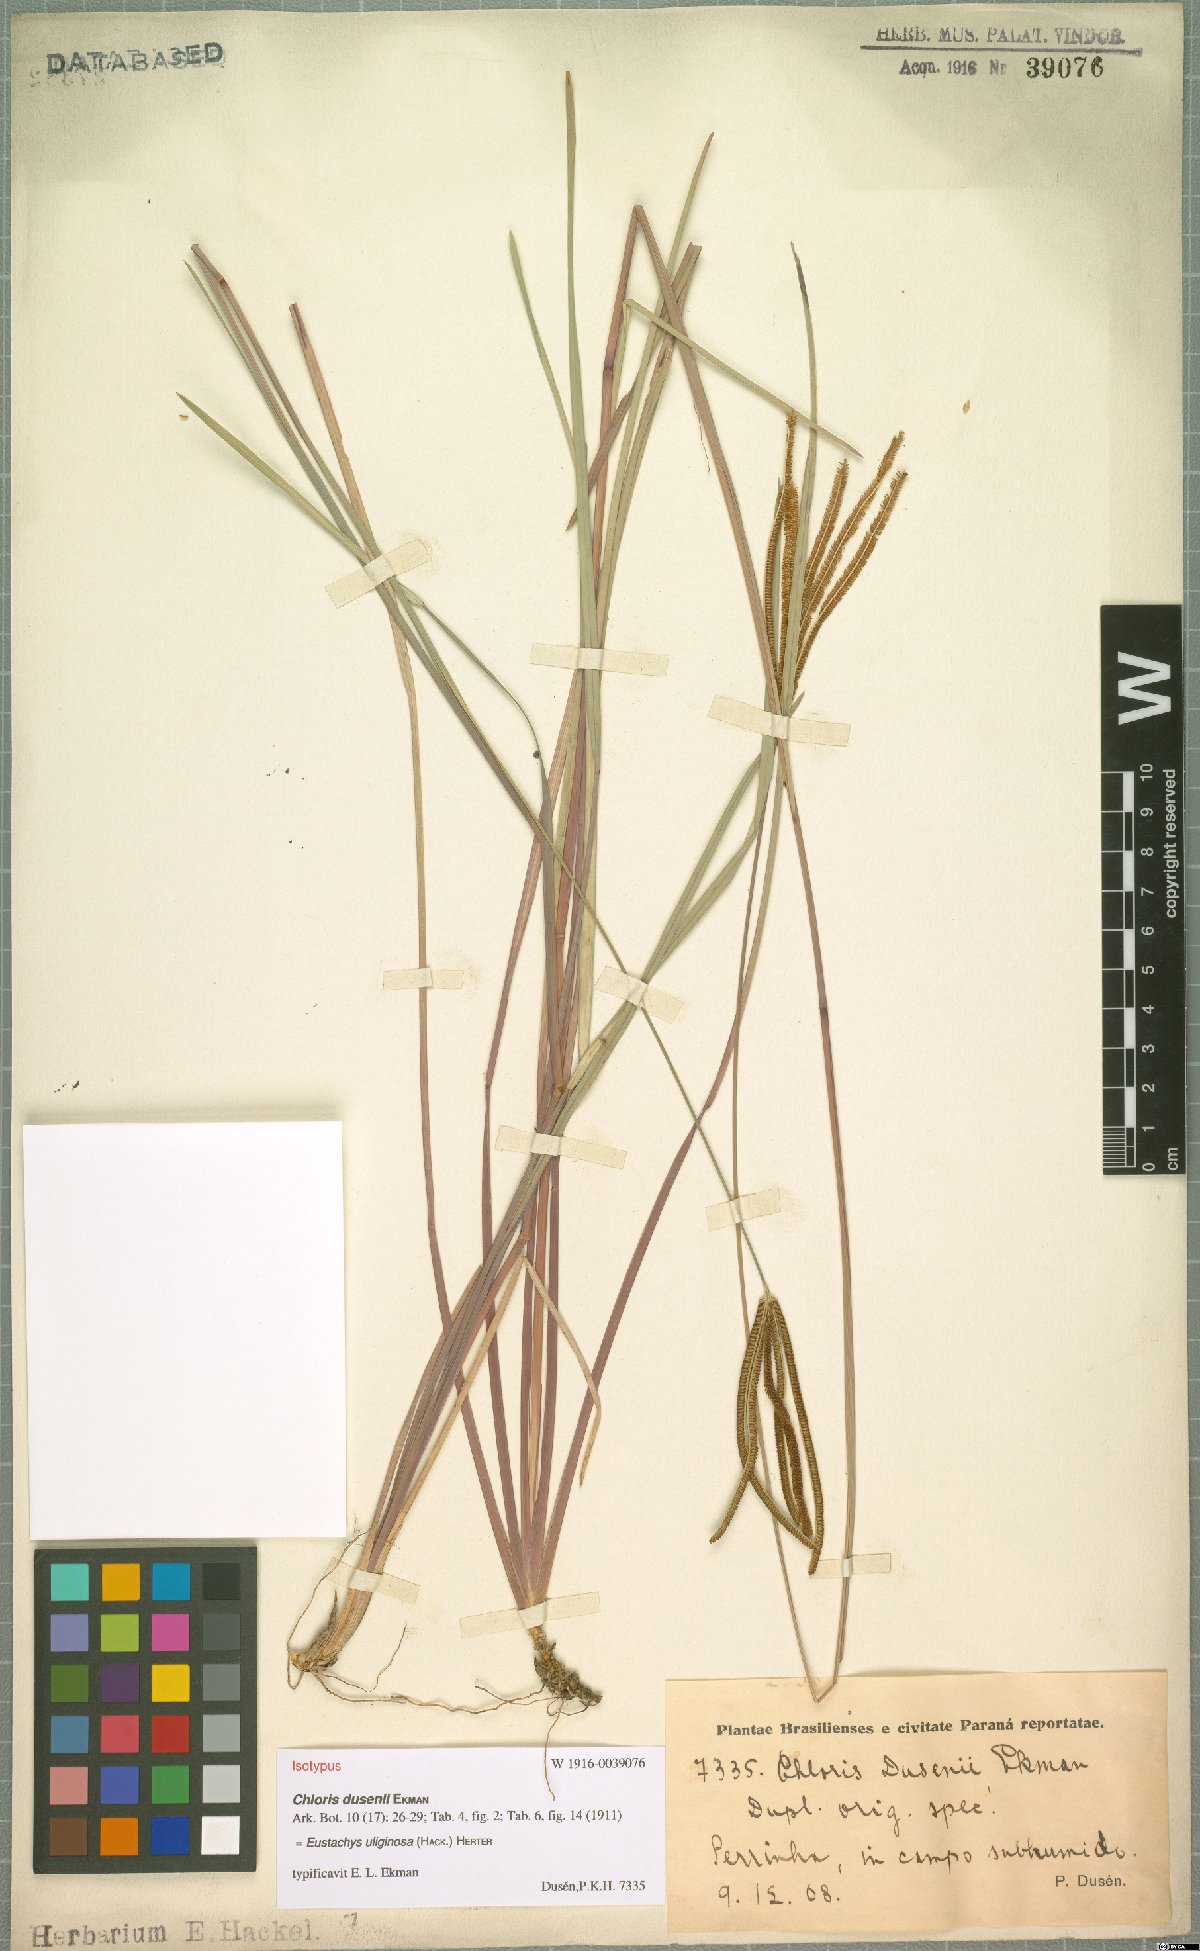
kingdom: Plantae
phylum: Tracheophyta
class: Liliopsida
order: Poales
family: Poaceae
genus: Eustachys
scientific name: Eustachys uliginosa
